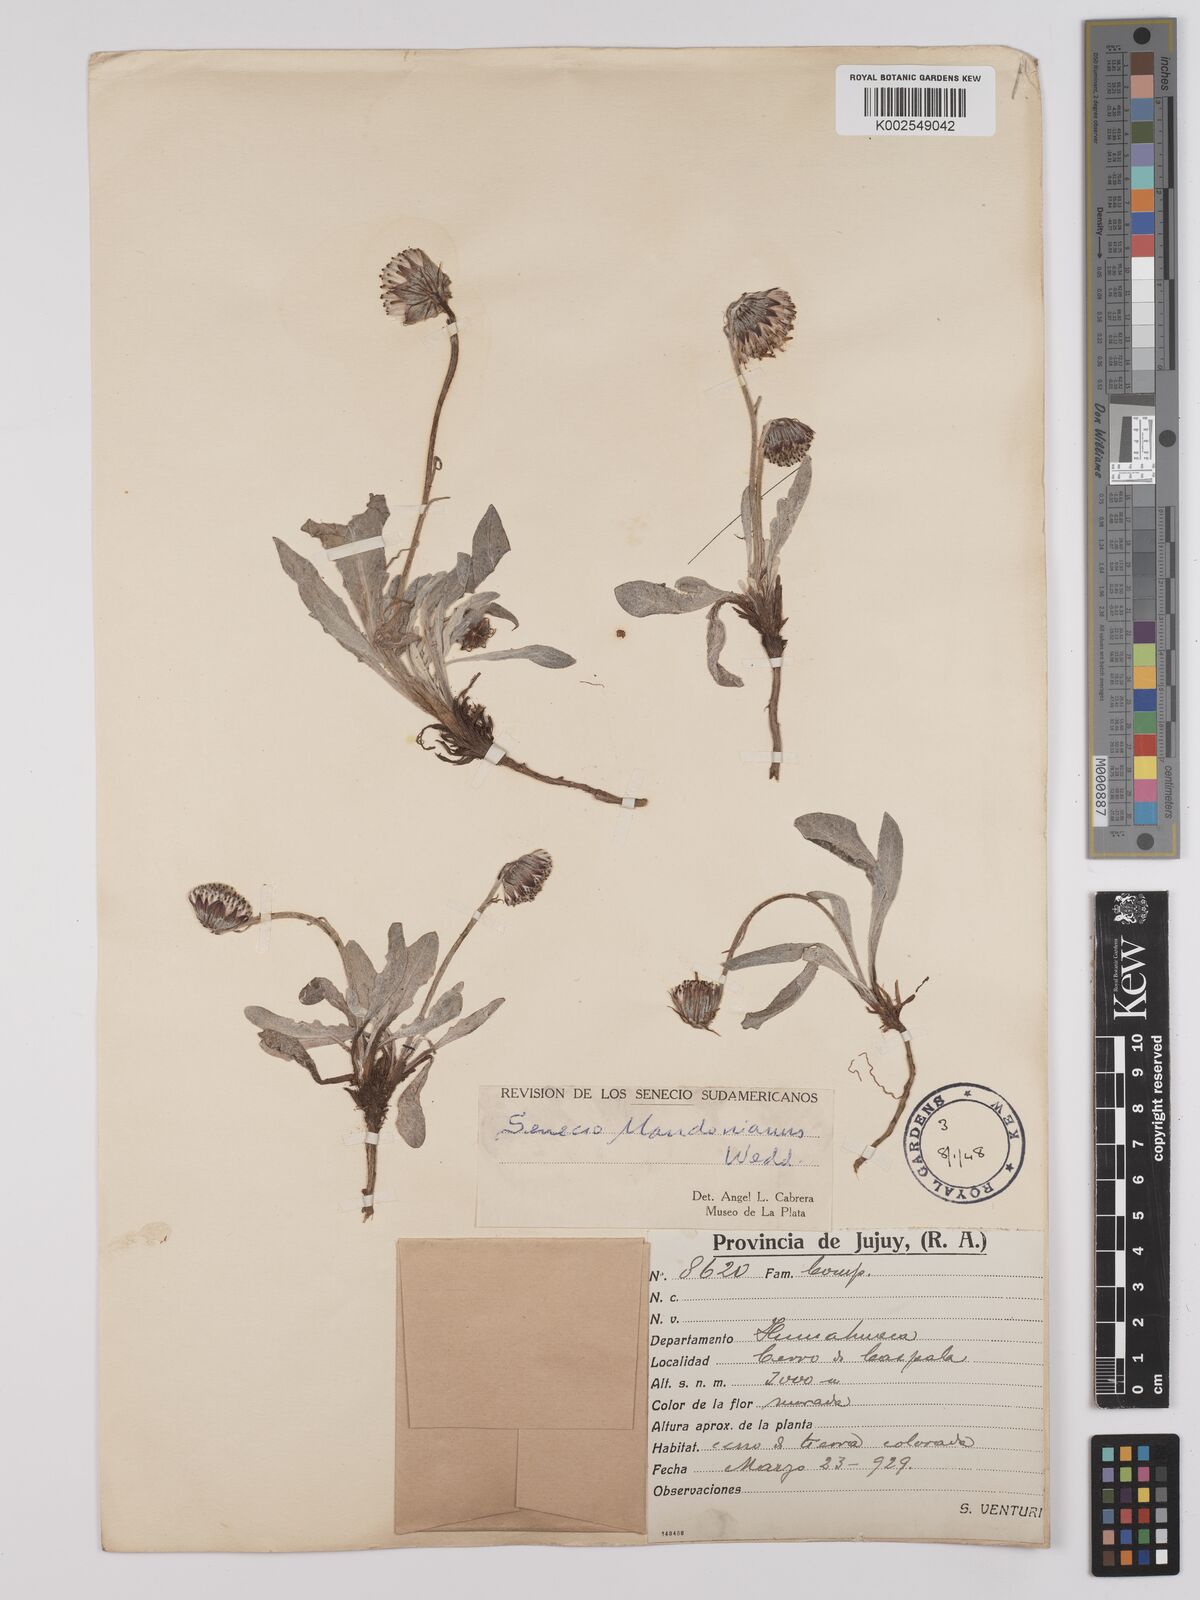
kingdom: Plantae
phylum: Tracheophyta
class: Magnoliopsida
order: Asterales
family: Asteraceae
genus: Culcitium
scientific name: Culcitium humile
